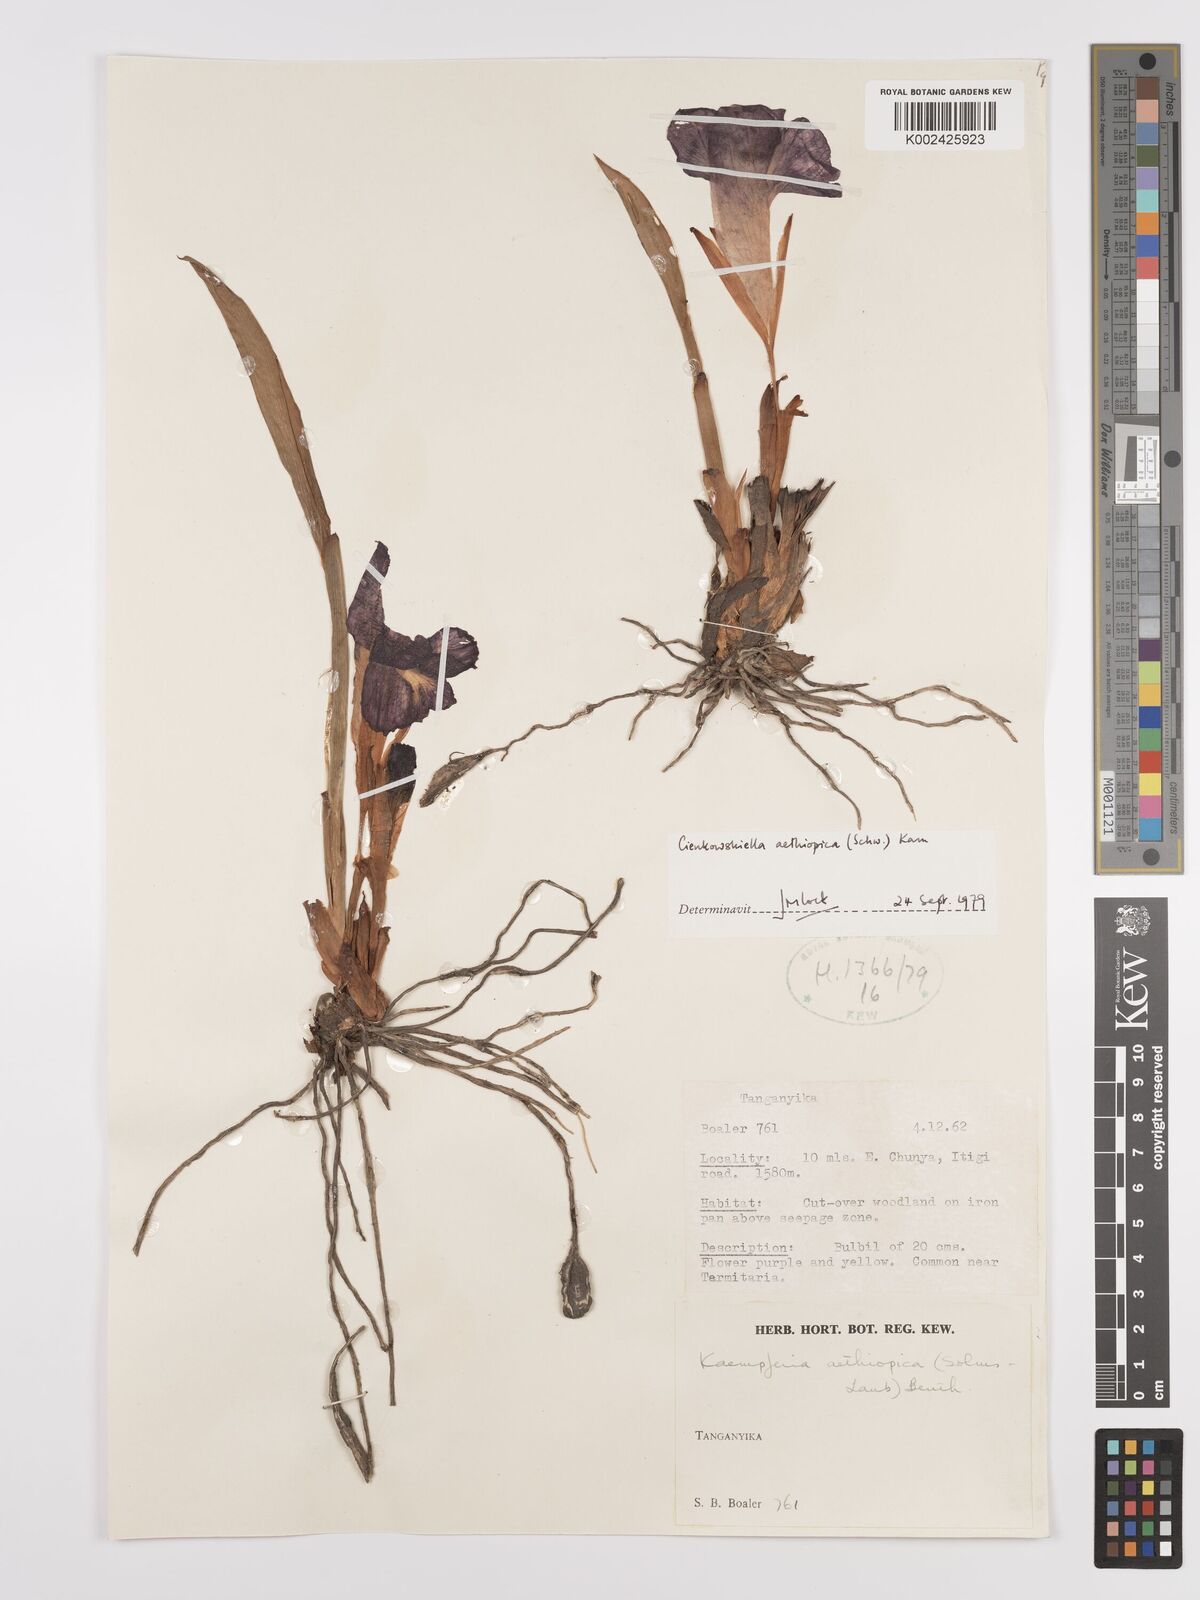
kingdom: Plantae
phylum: Tracheophyta
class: Liliopsida
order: Zingiberales
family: Zingiberaceae
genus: Siphonochilus
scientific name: Siphonochilus aethiopicus
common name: African-ginger
